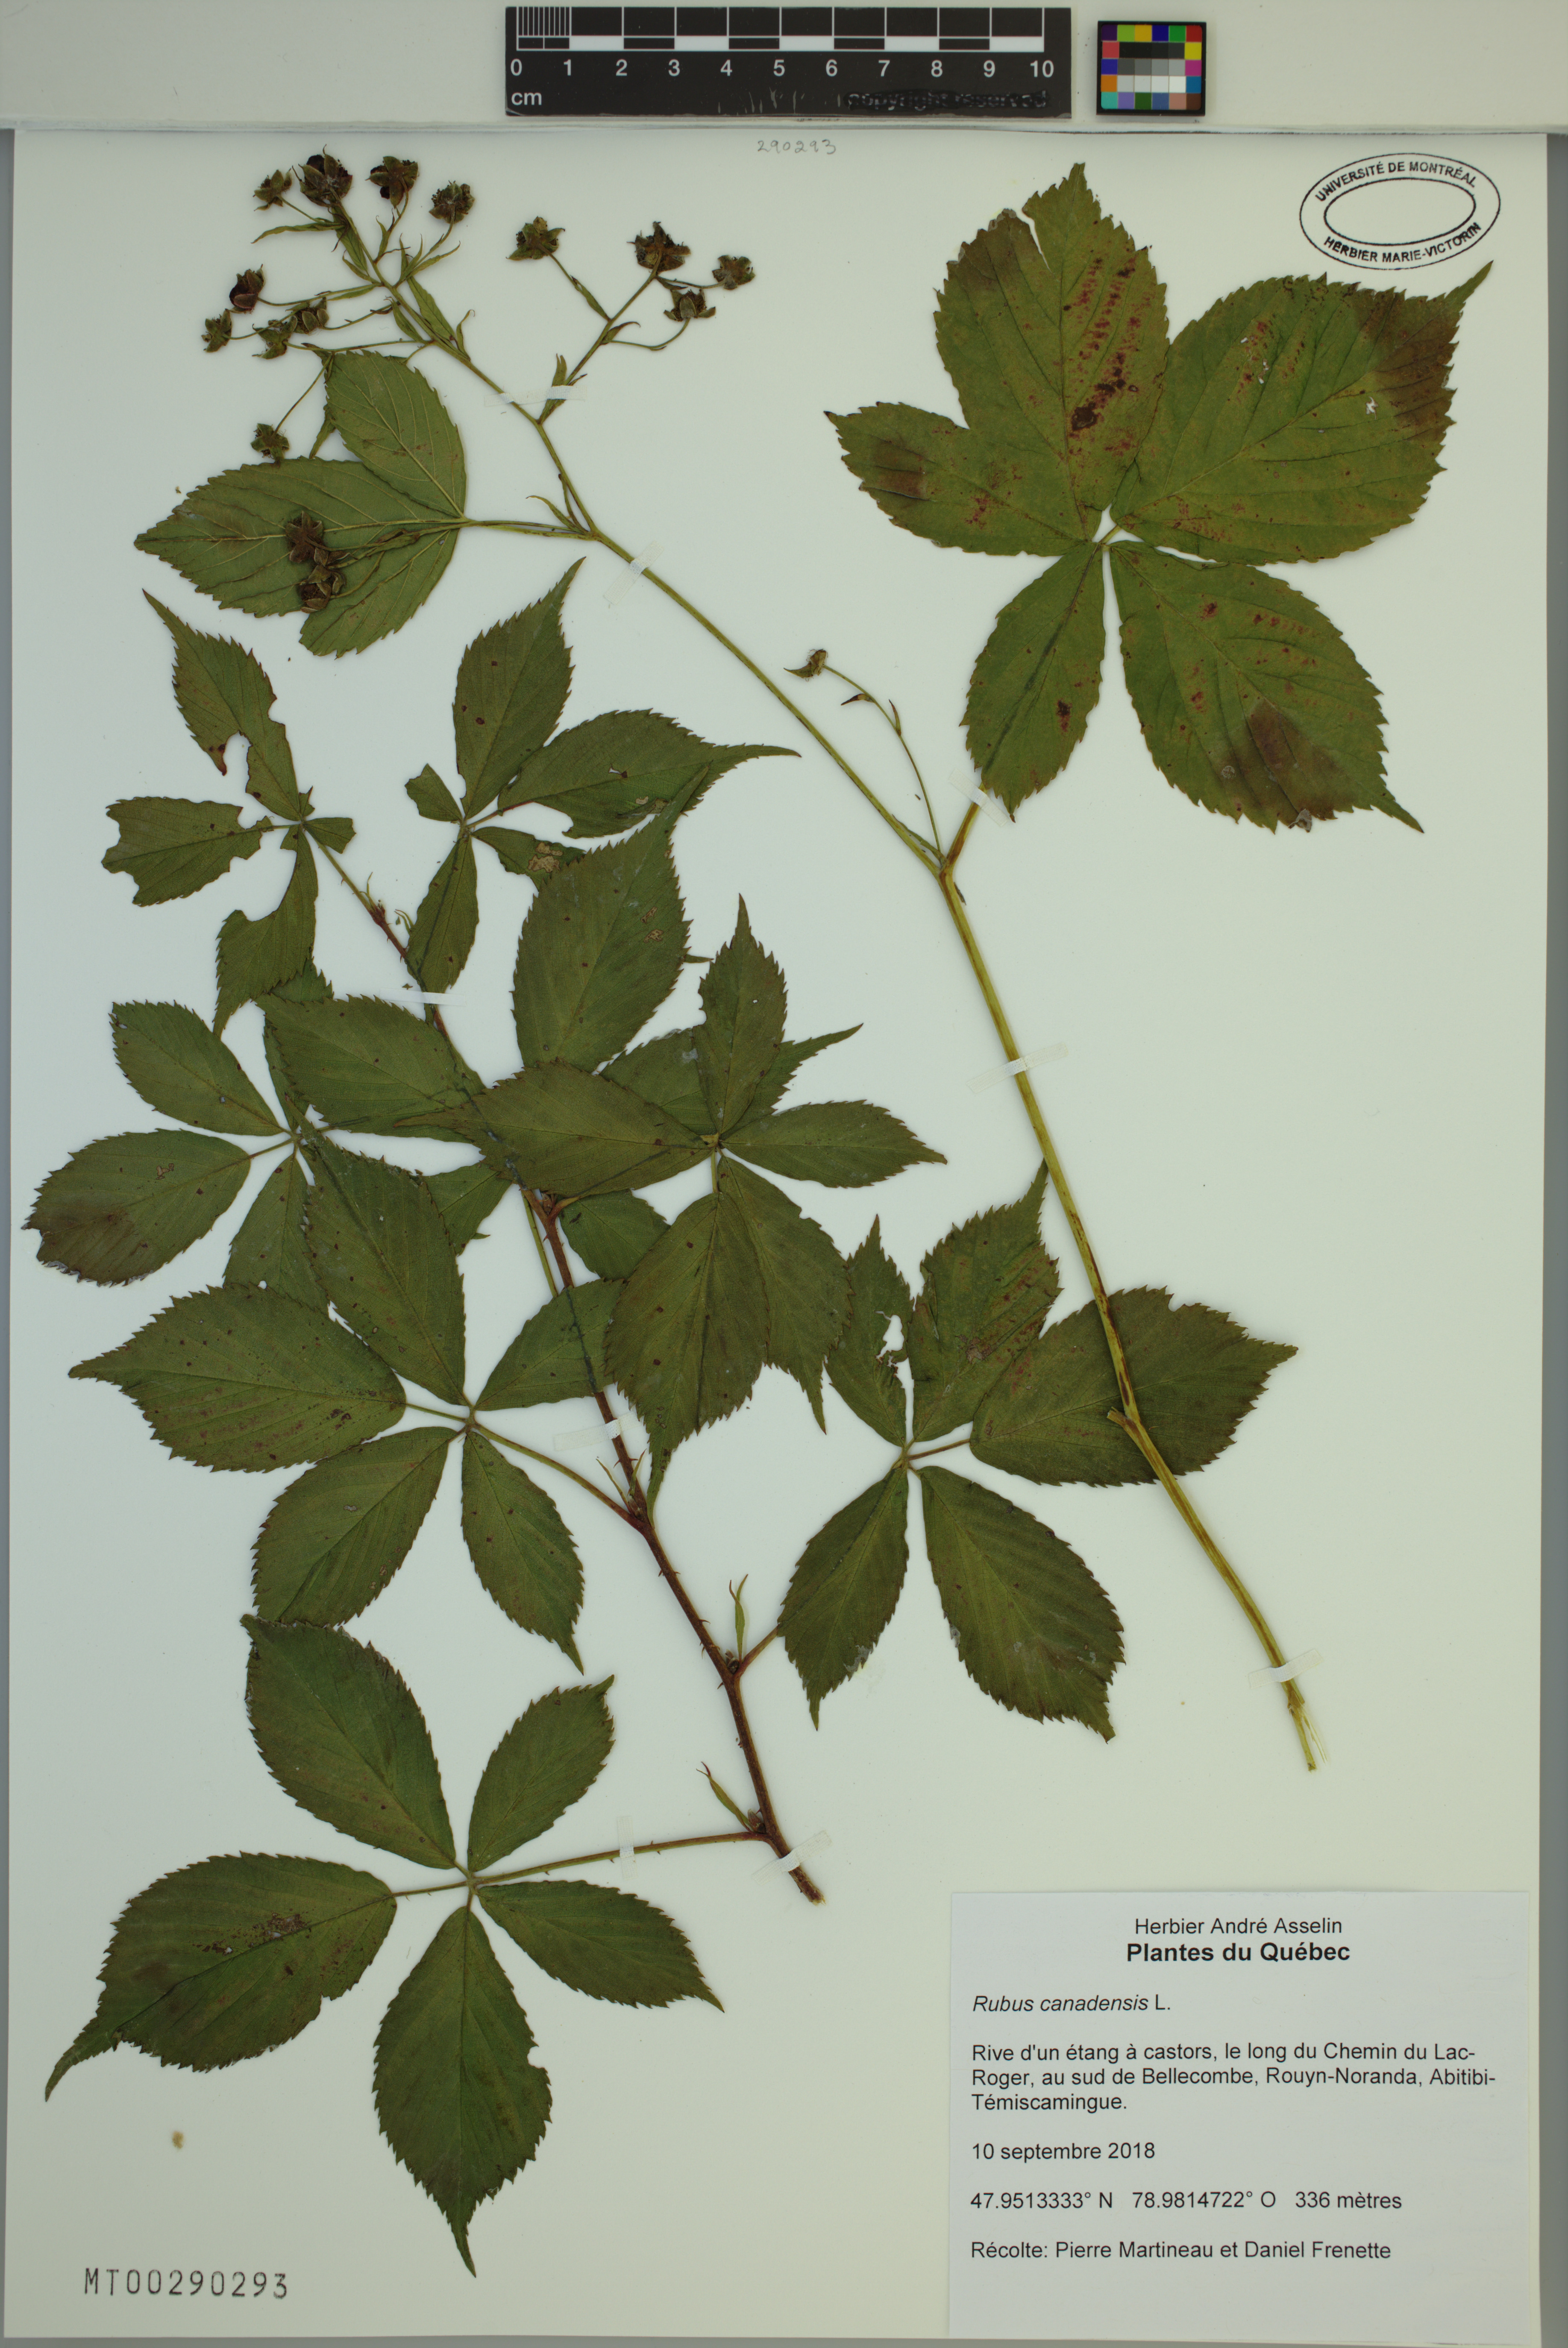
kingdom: Plantae
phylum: Tracheophyta
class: Magnoliopsida
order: Rosales
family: Rosaceae
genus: Rubus
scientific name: Rubus canadensis
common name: Smooth blackberry
